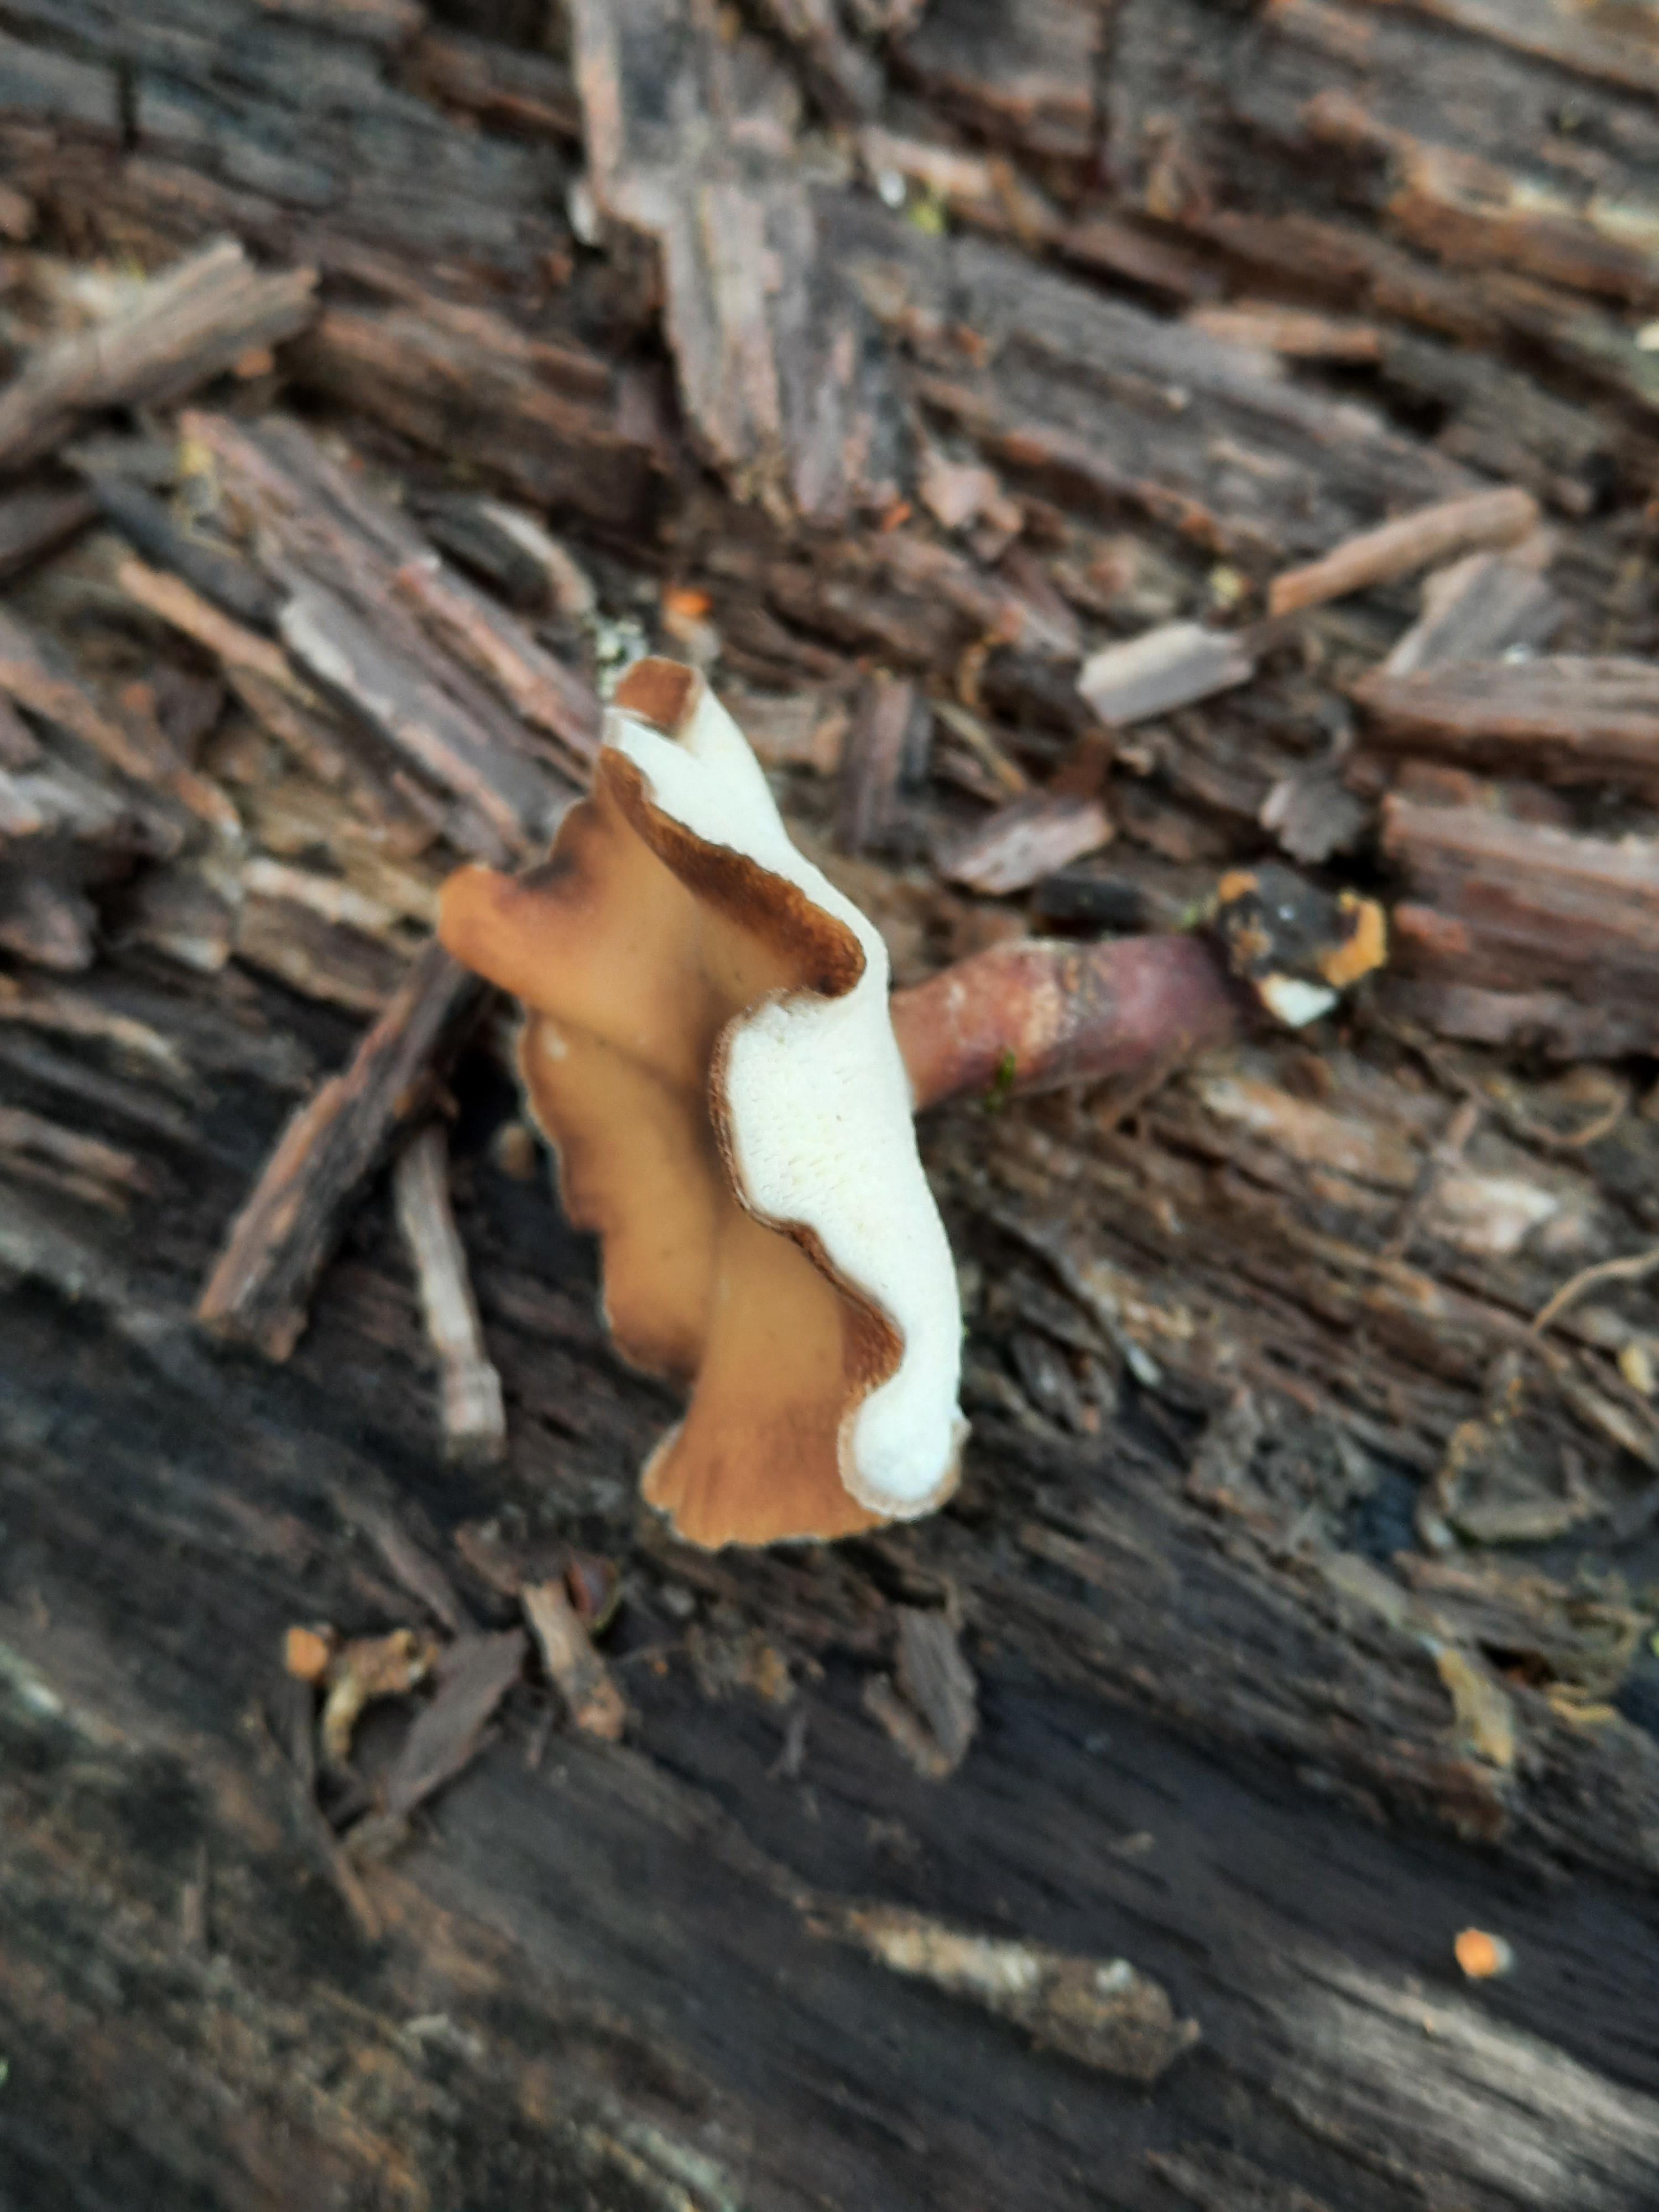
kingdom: Fungi
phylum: Basidiomycota
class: Agaricomycetes
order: Polyporales
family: Polyporaceae
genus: Lentinus
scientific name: Lentinus brumalis
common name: vinter-stilkporesvamp
